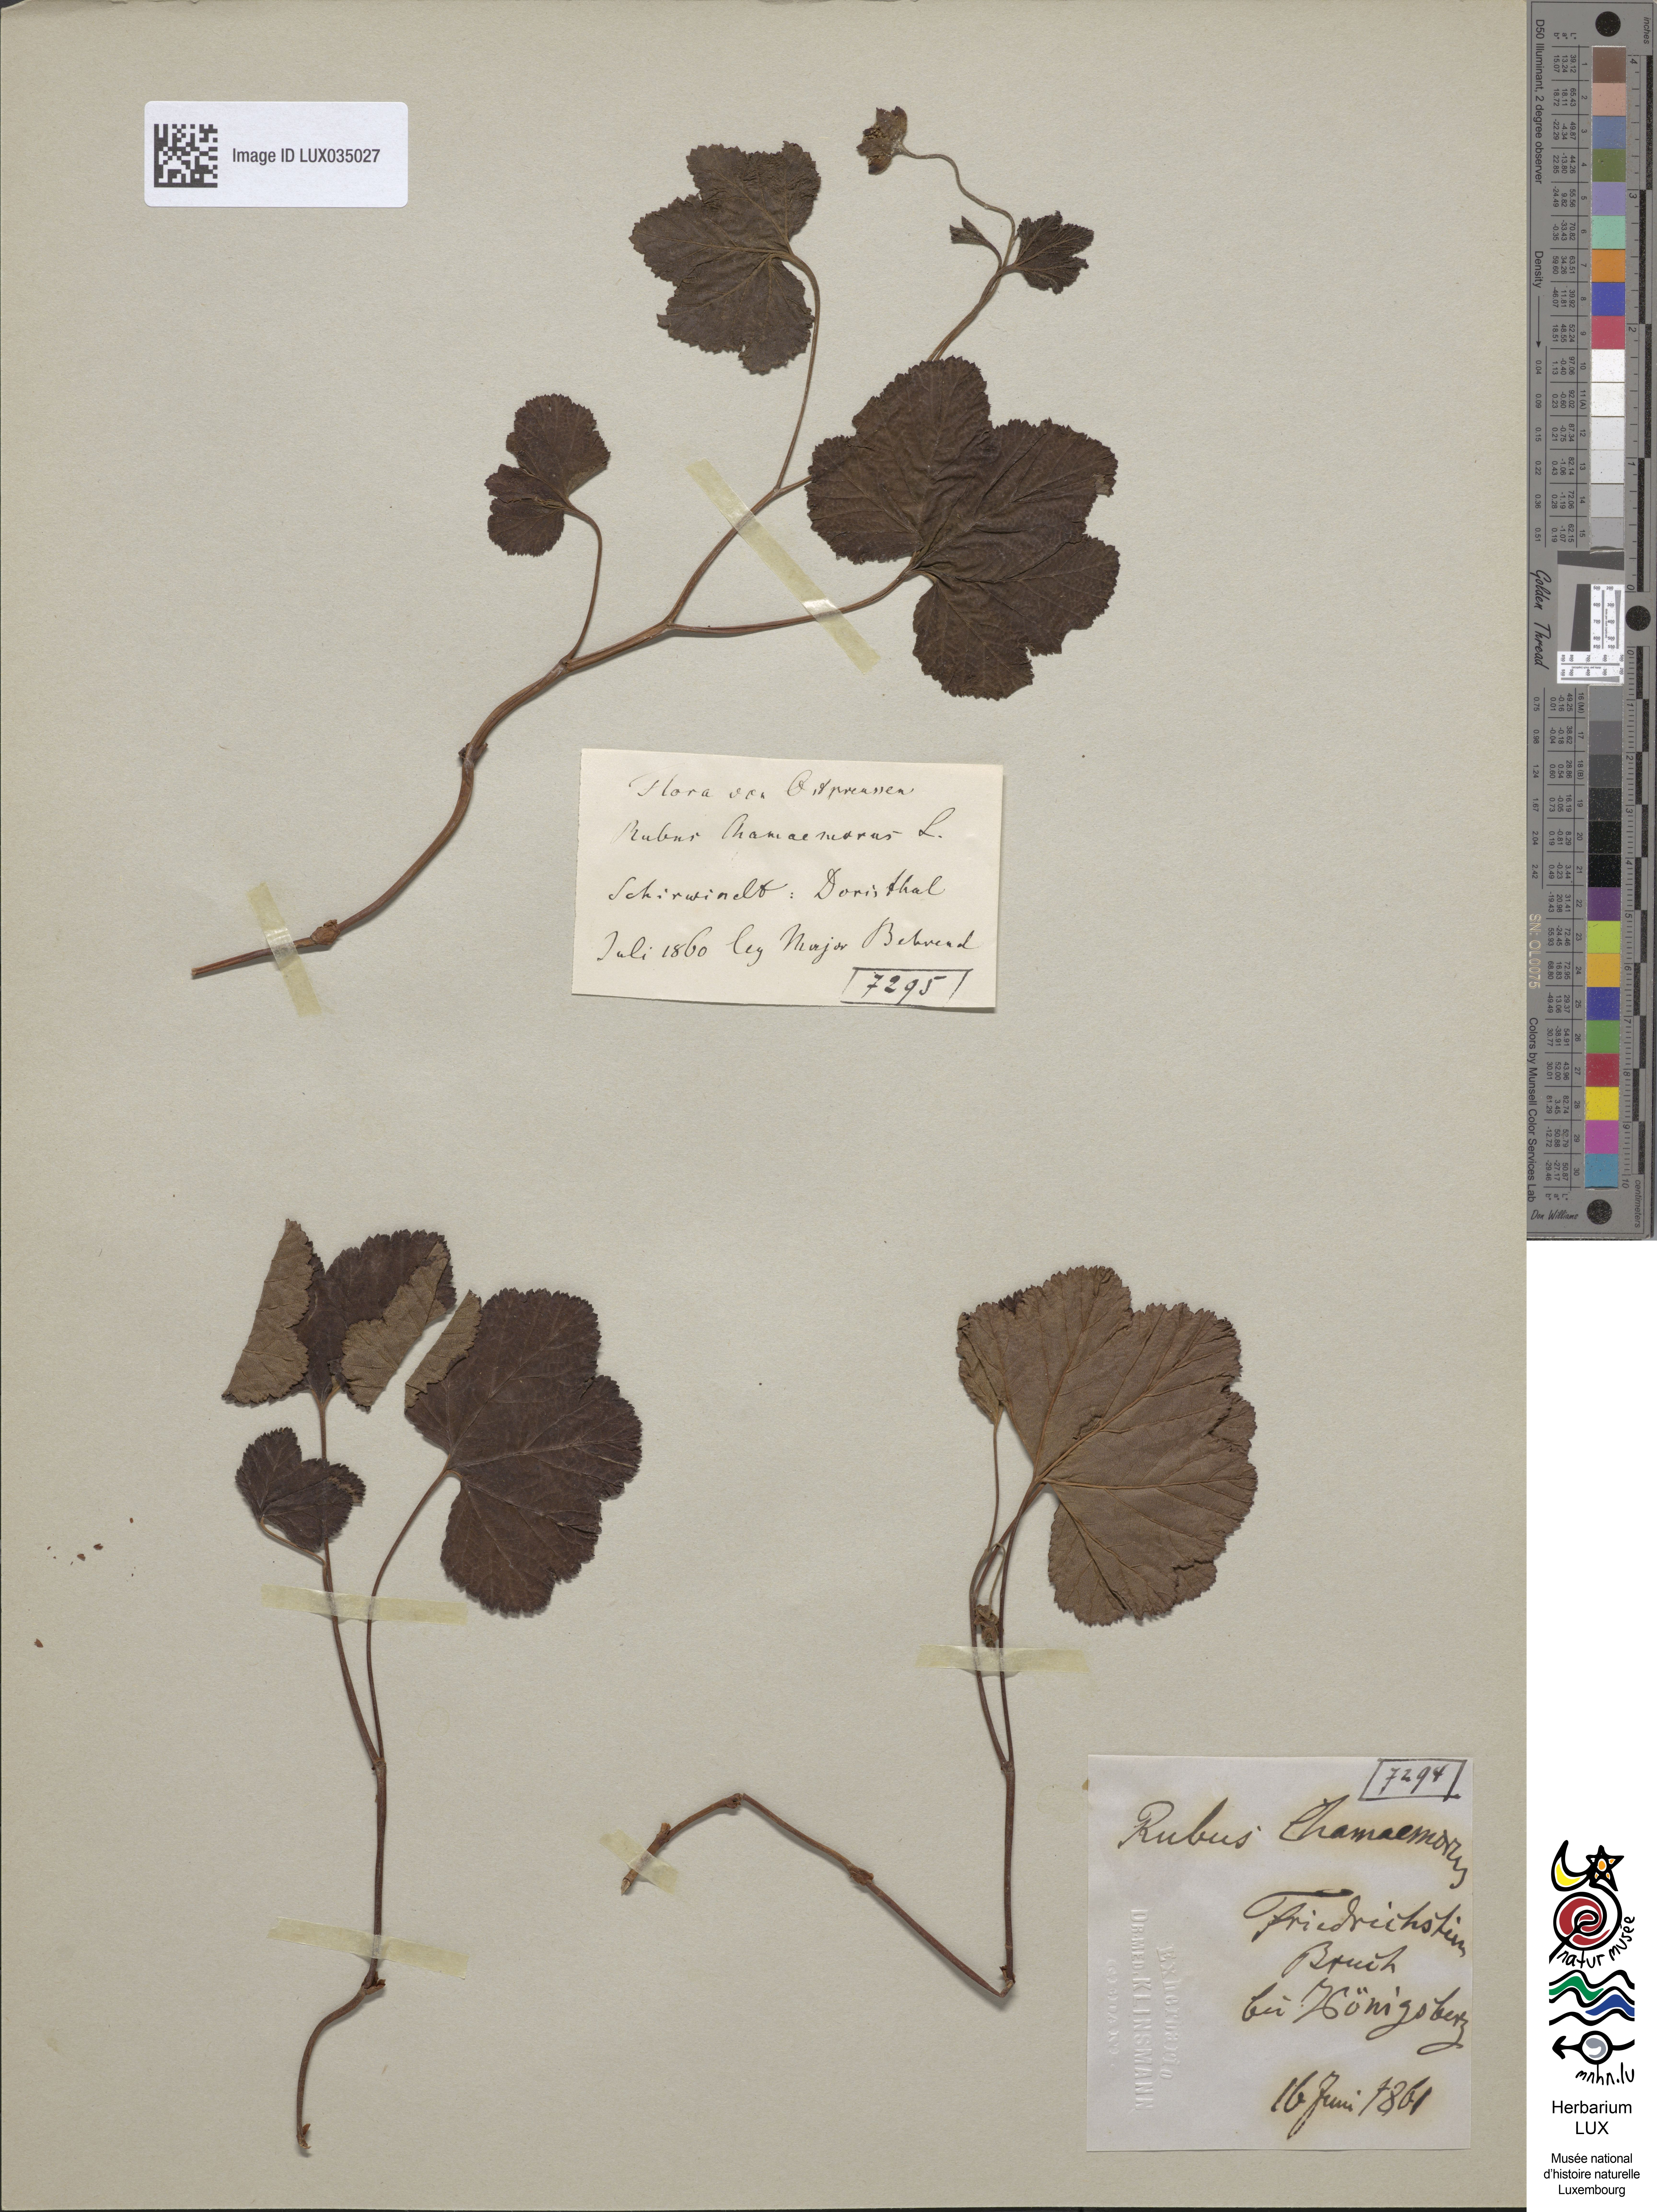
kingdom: Plantae
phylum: Tracheophyta
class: Magnoliopsida
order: Rosales
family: Rosaceae
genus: Rubus
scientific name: Rubus chamaemorus
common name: Cloudberry
